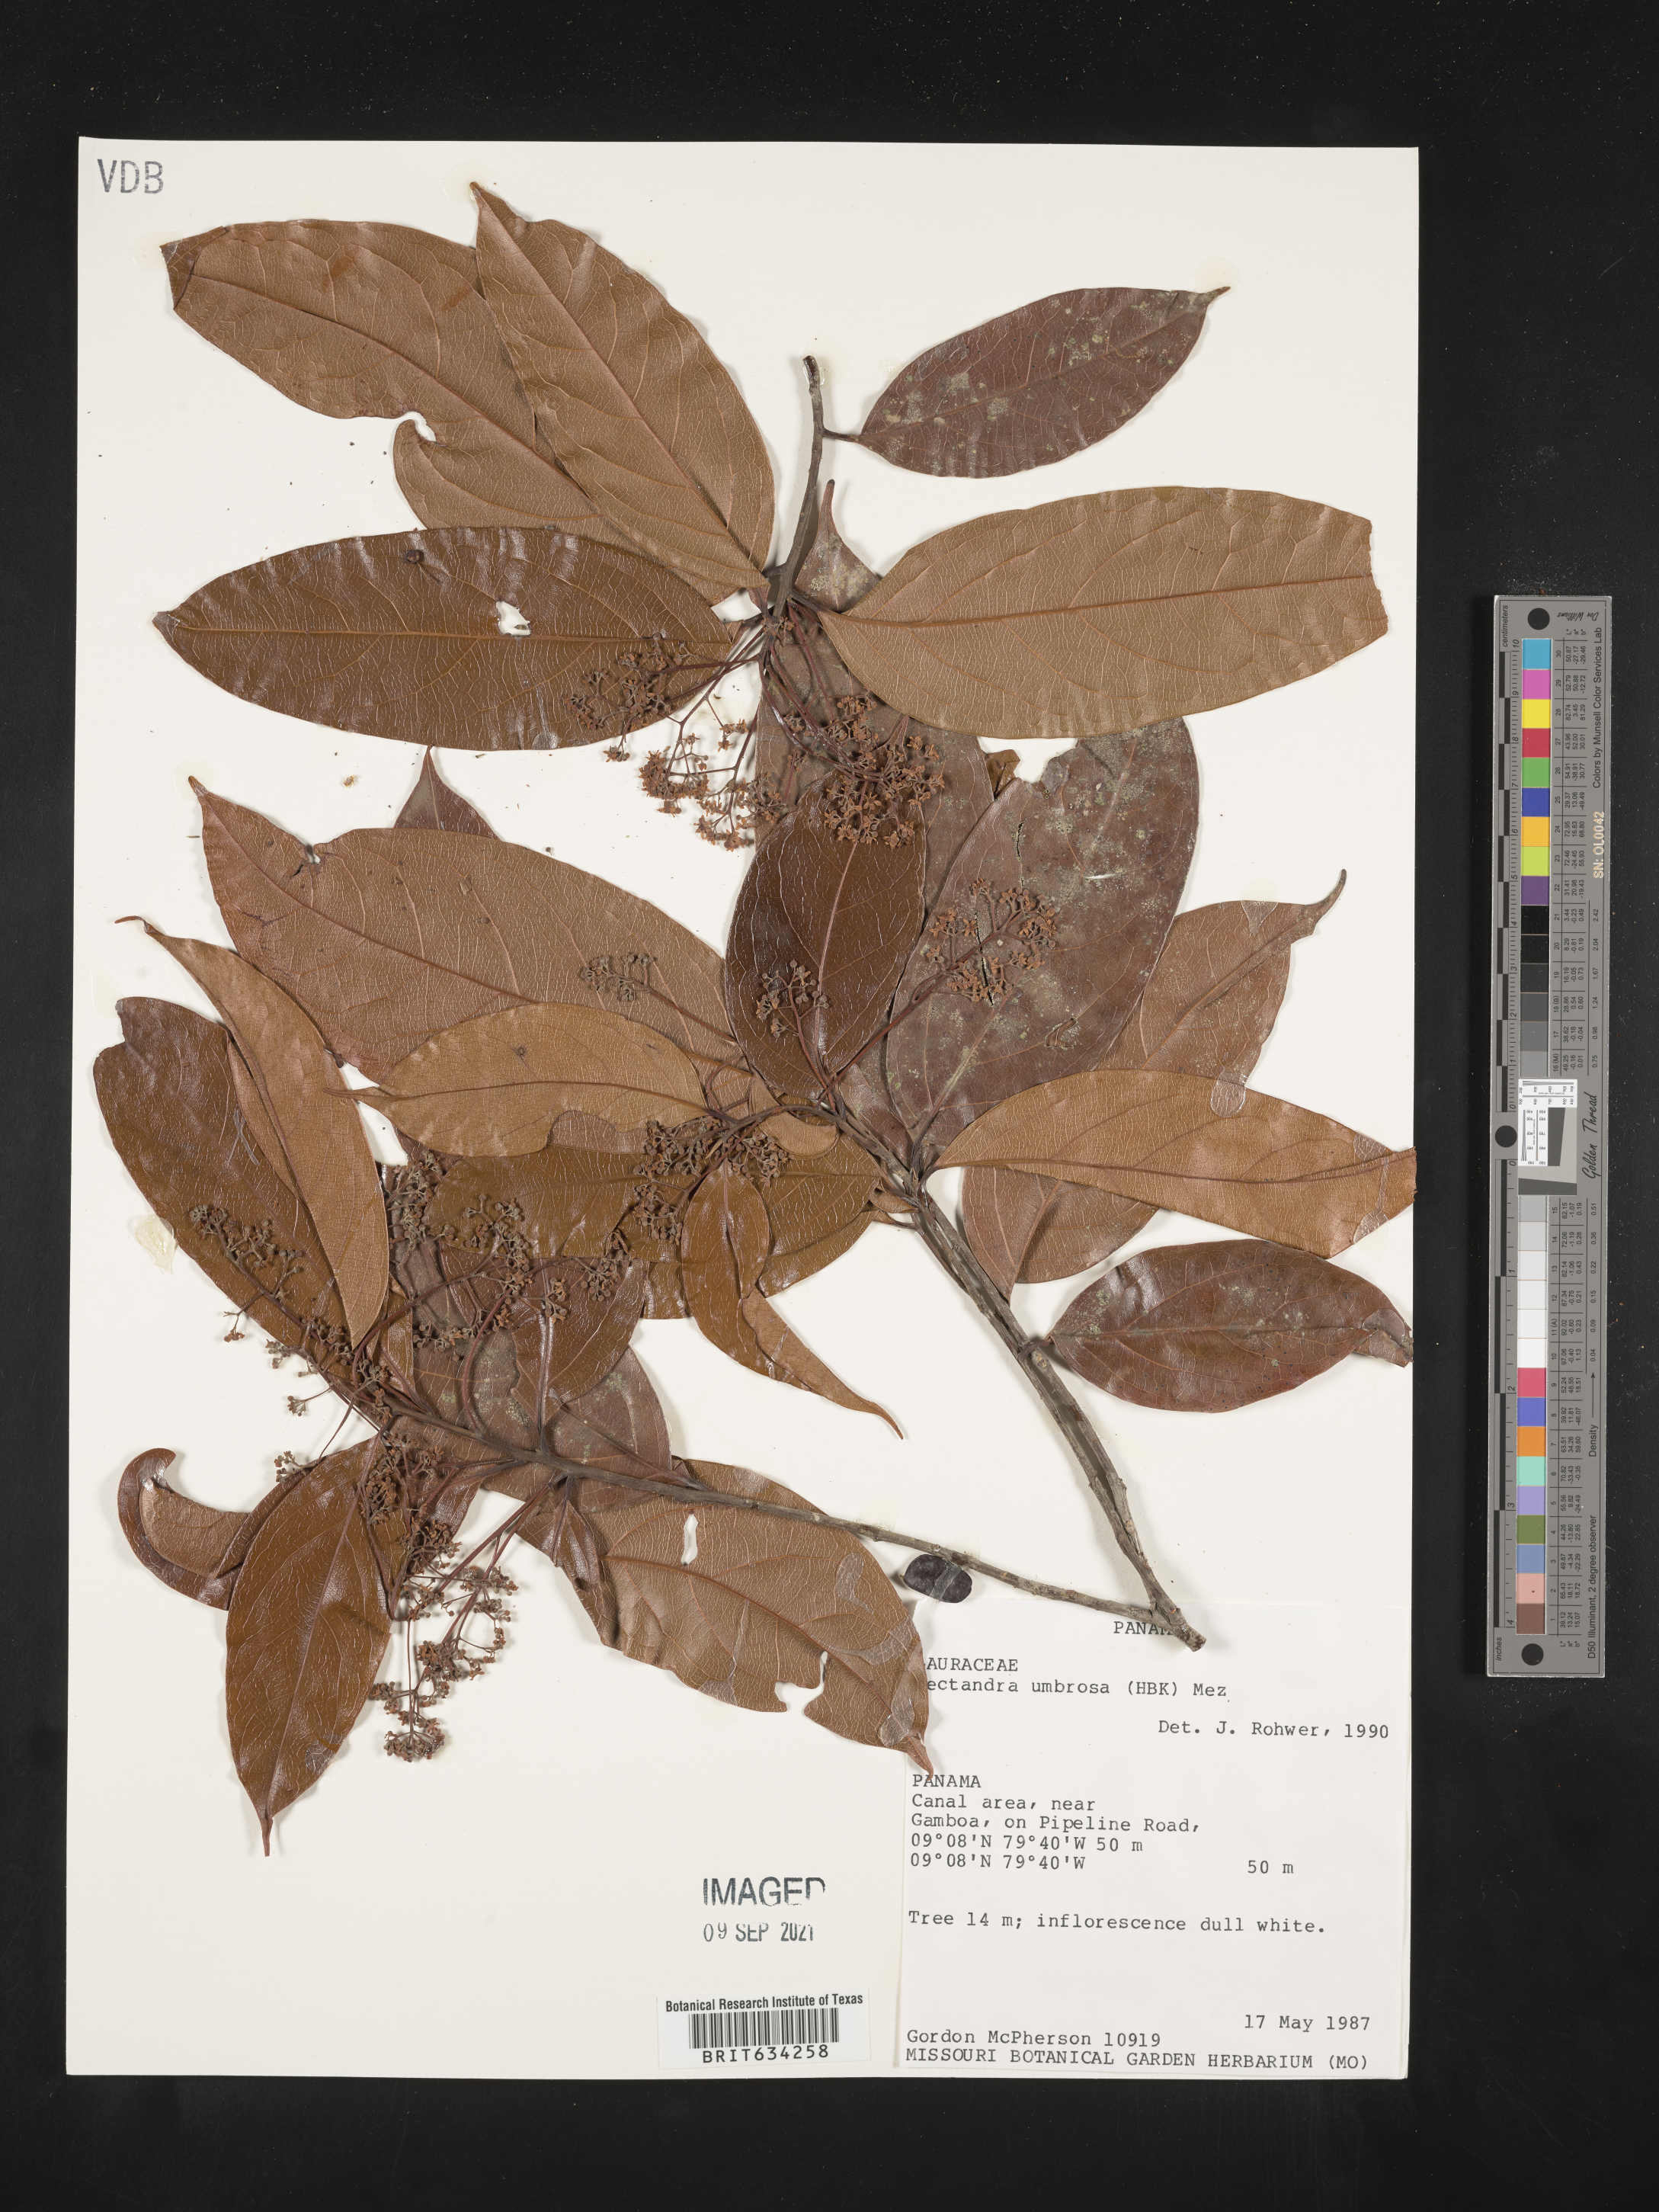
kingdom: Plantae
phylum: Tracheophyta
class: Magnoliopsida
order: Laurales
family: Lauraceae
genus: Nectandra
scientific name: Nectandra
